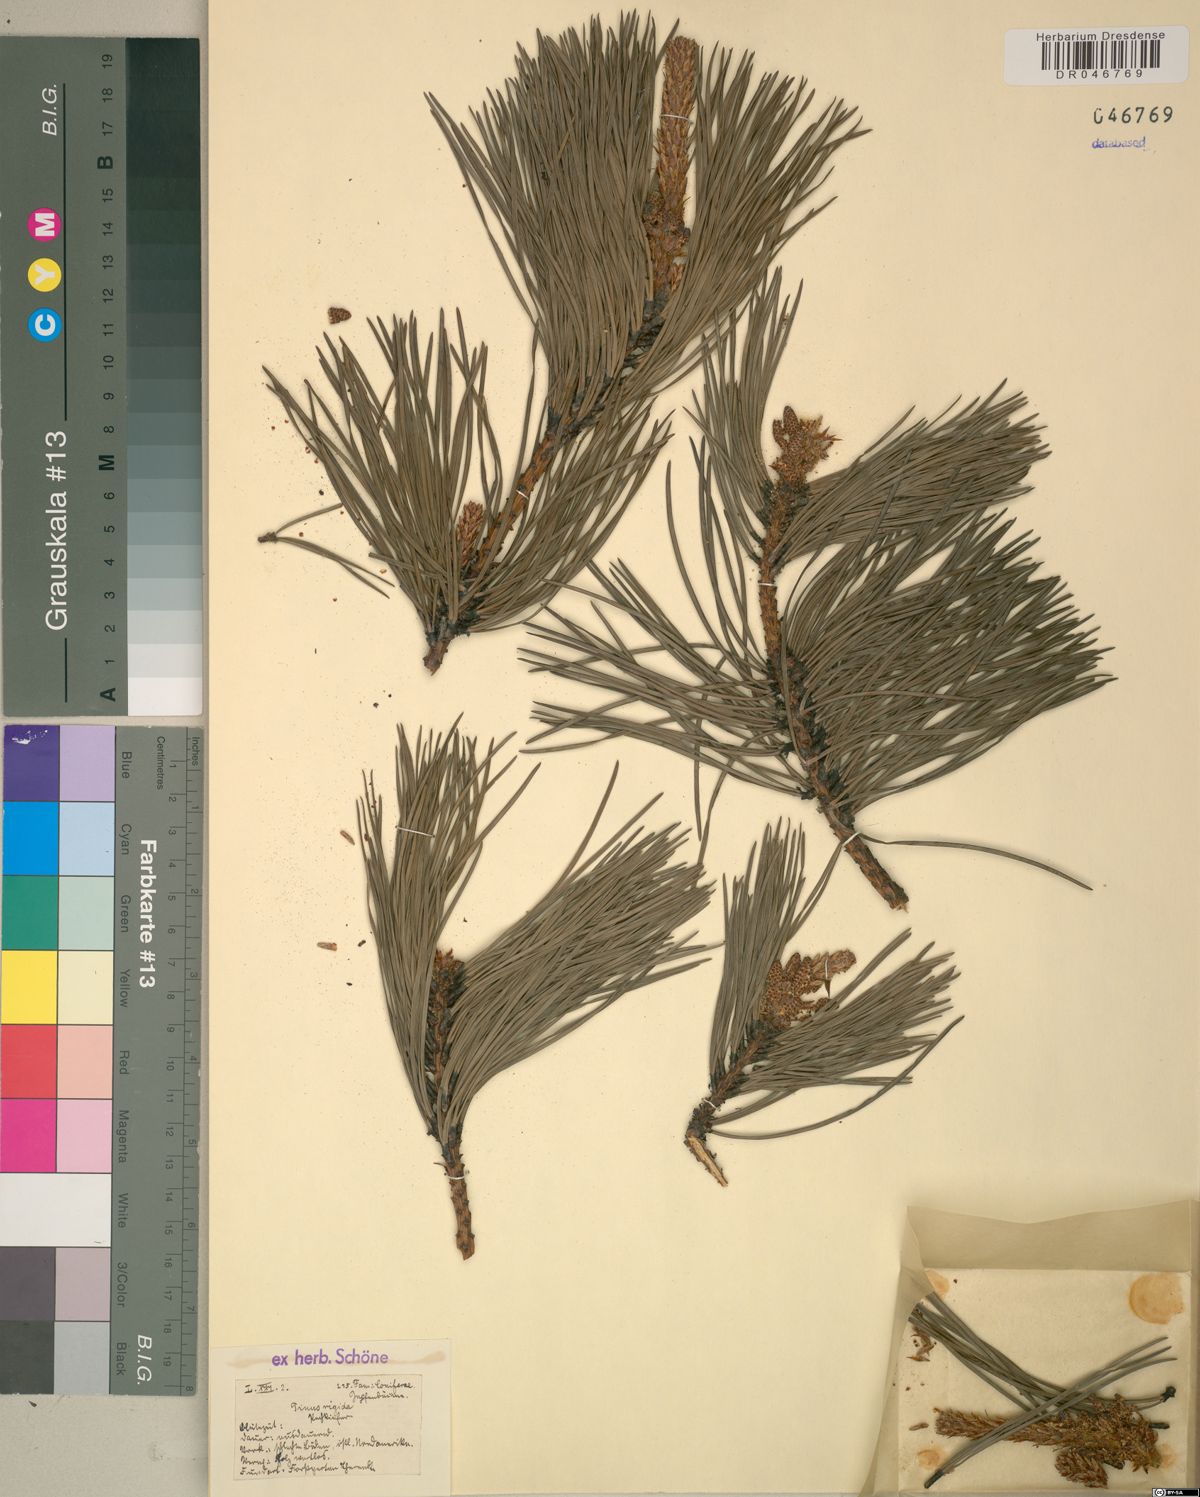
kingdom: Plantae
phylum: Tracheophyta
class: Pinopsida
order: Pinales
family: Pinaceae
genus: Pinus
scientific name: Pinus rigida
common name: Pitch pine
